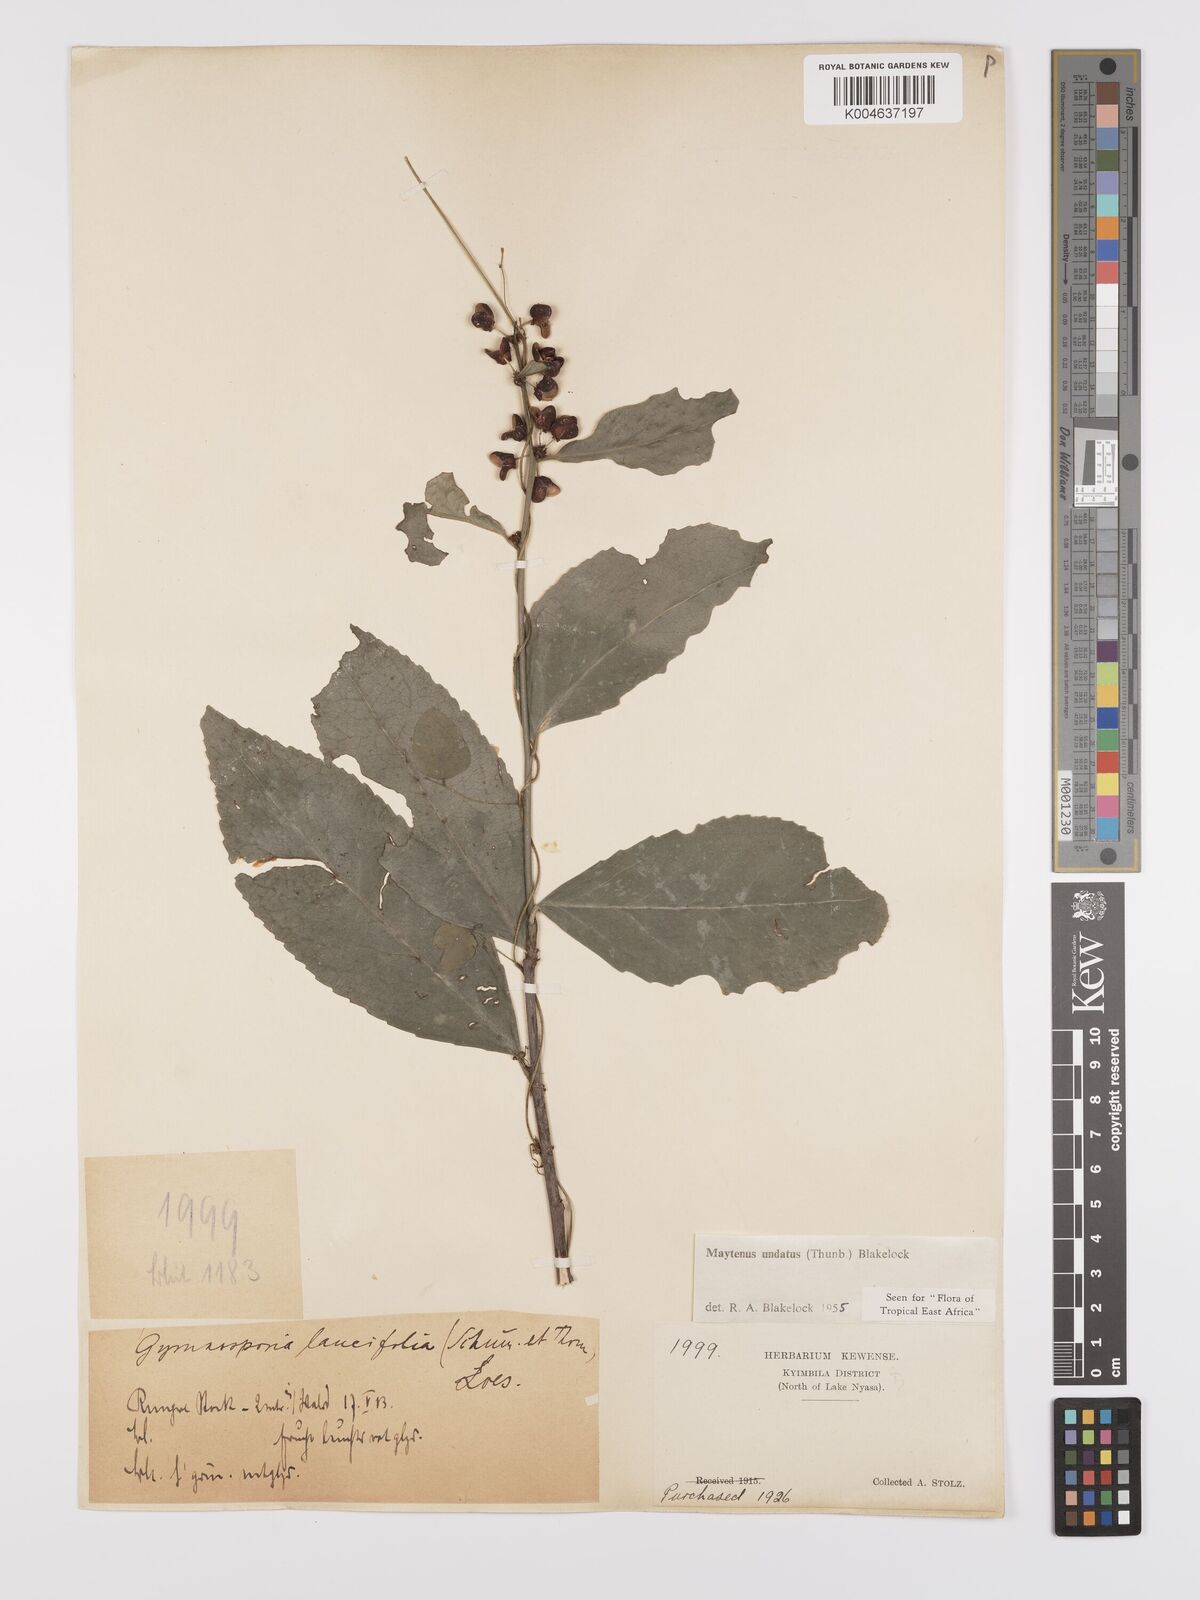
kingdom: Plantae
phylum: Tracheophyta
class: Magnoliopsida
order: Celastrales
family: Celastraceae
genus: Gymnosporia
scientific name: Gymnosporia undata
